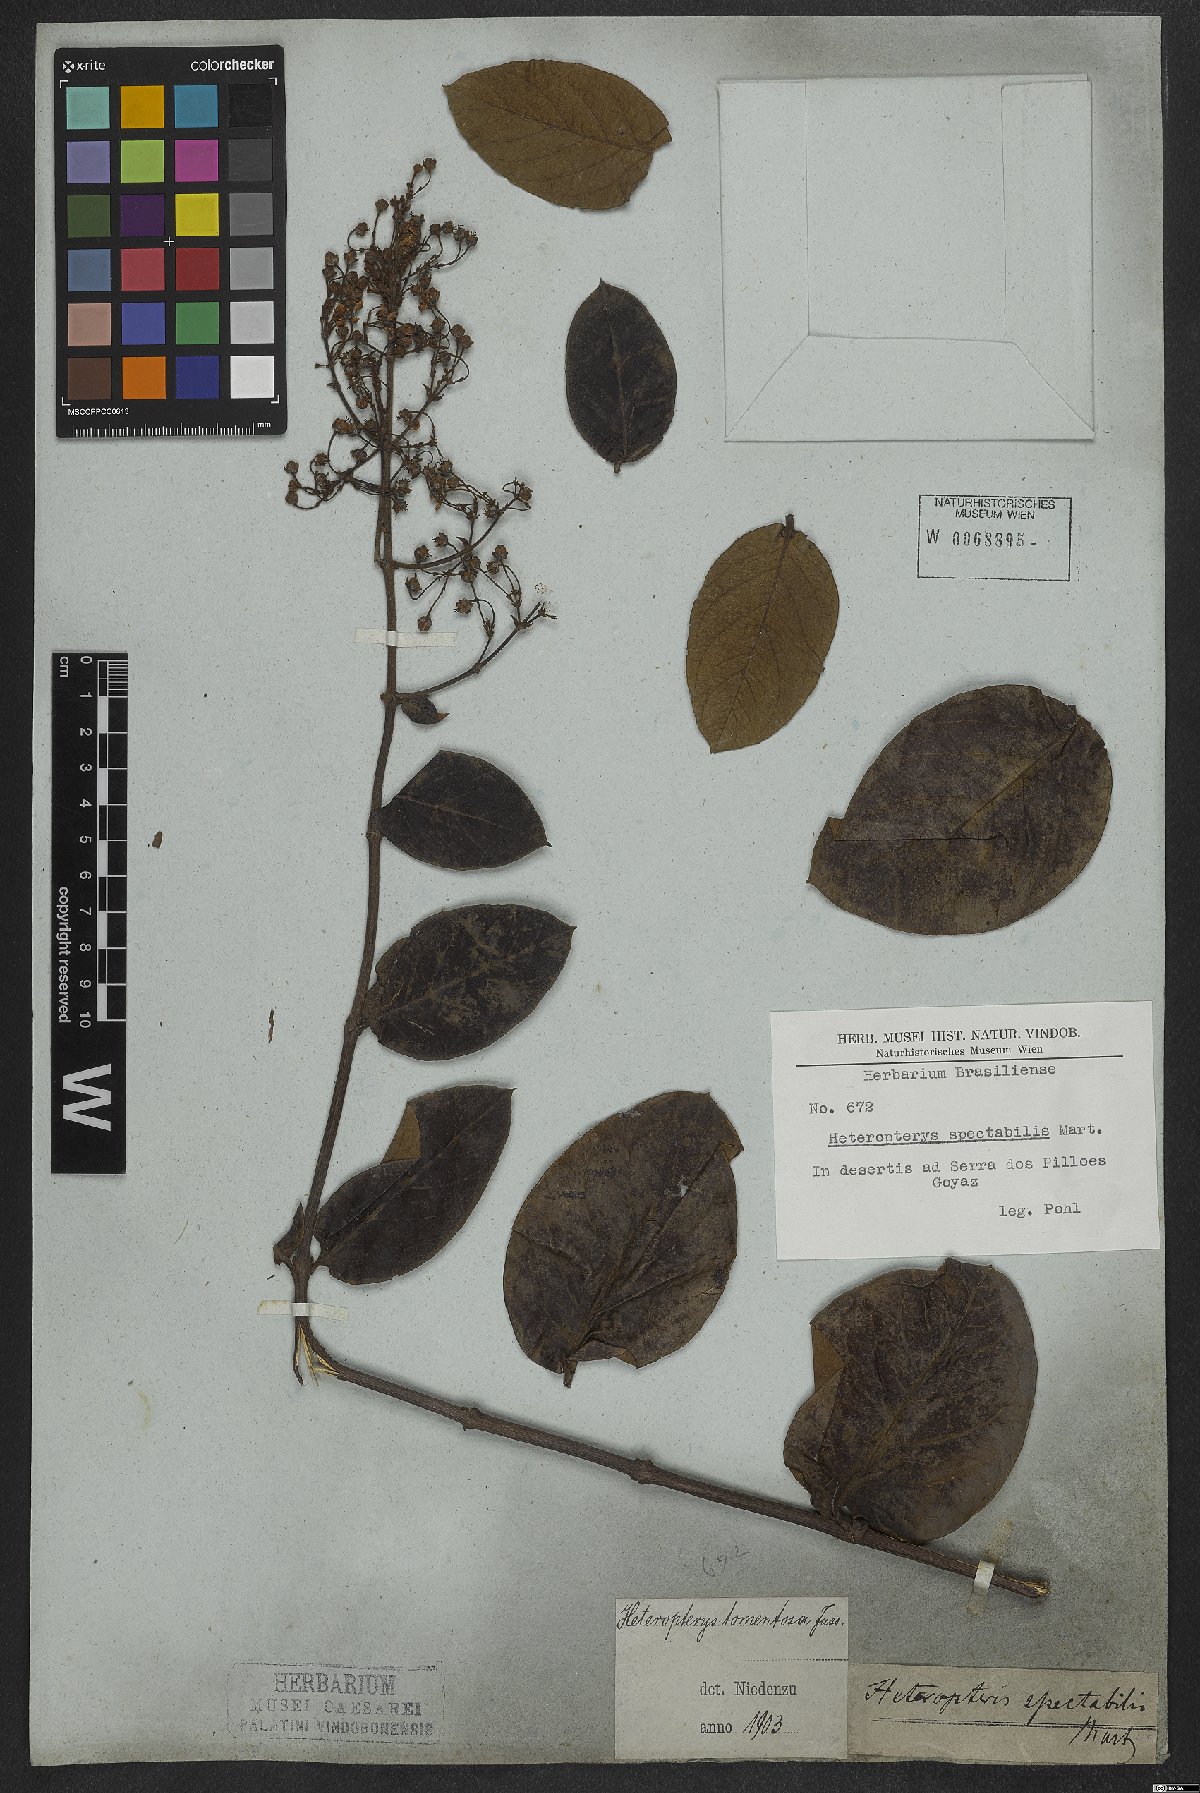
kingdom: Plantae
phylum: Tracheophyta
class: Magnoliopsida
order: Malpighiales
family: Malpighiaceae
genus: Heteropterys
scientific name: Heteropterys tomentosa
